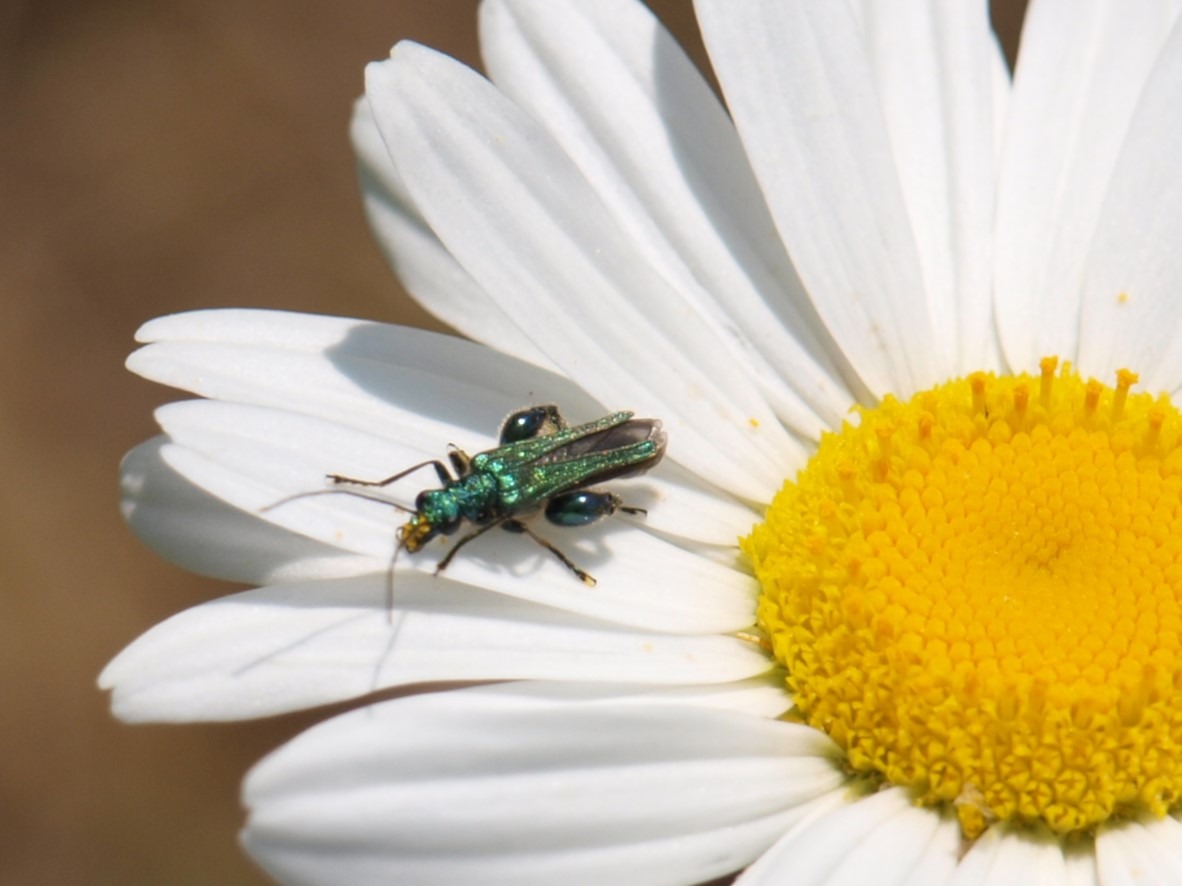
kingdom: Animalia
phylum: Arthropoda
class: Insecta
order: Coleoptera
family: Oedemeridae
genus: Oedemera
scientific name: Oedemera nobilis
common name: Tyklårssolbille
